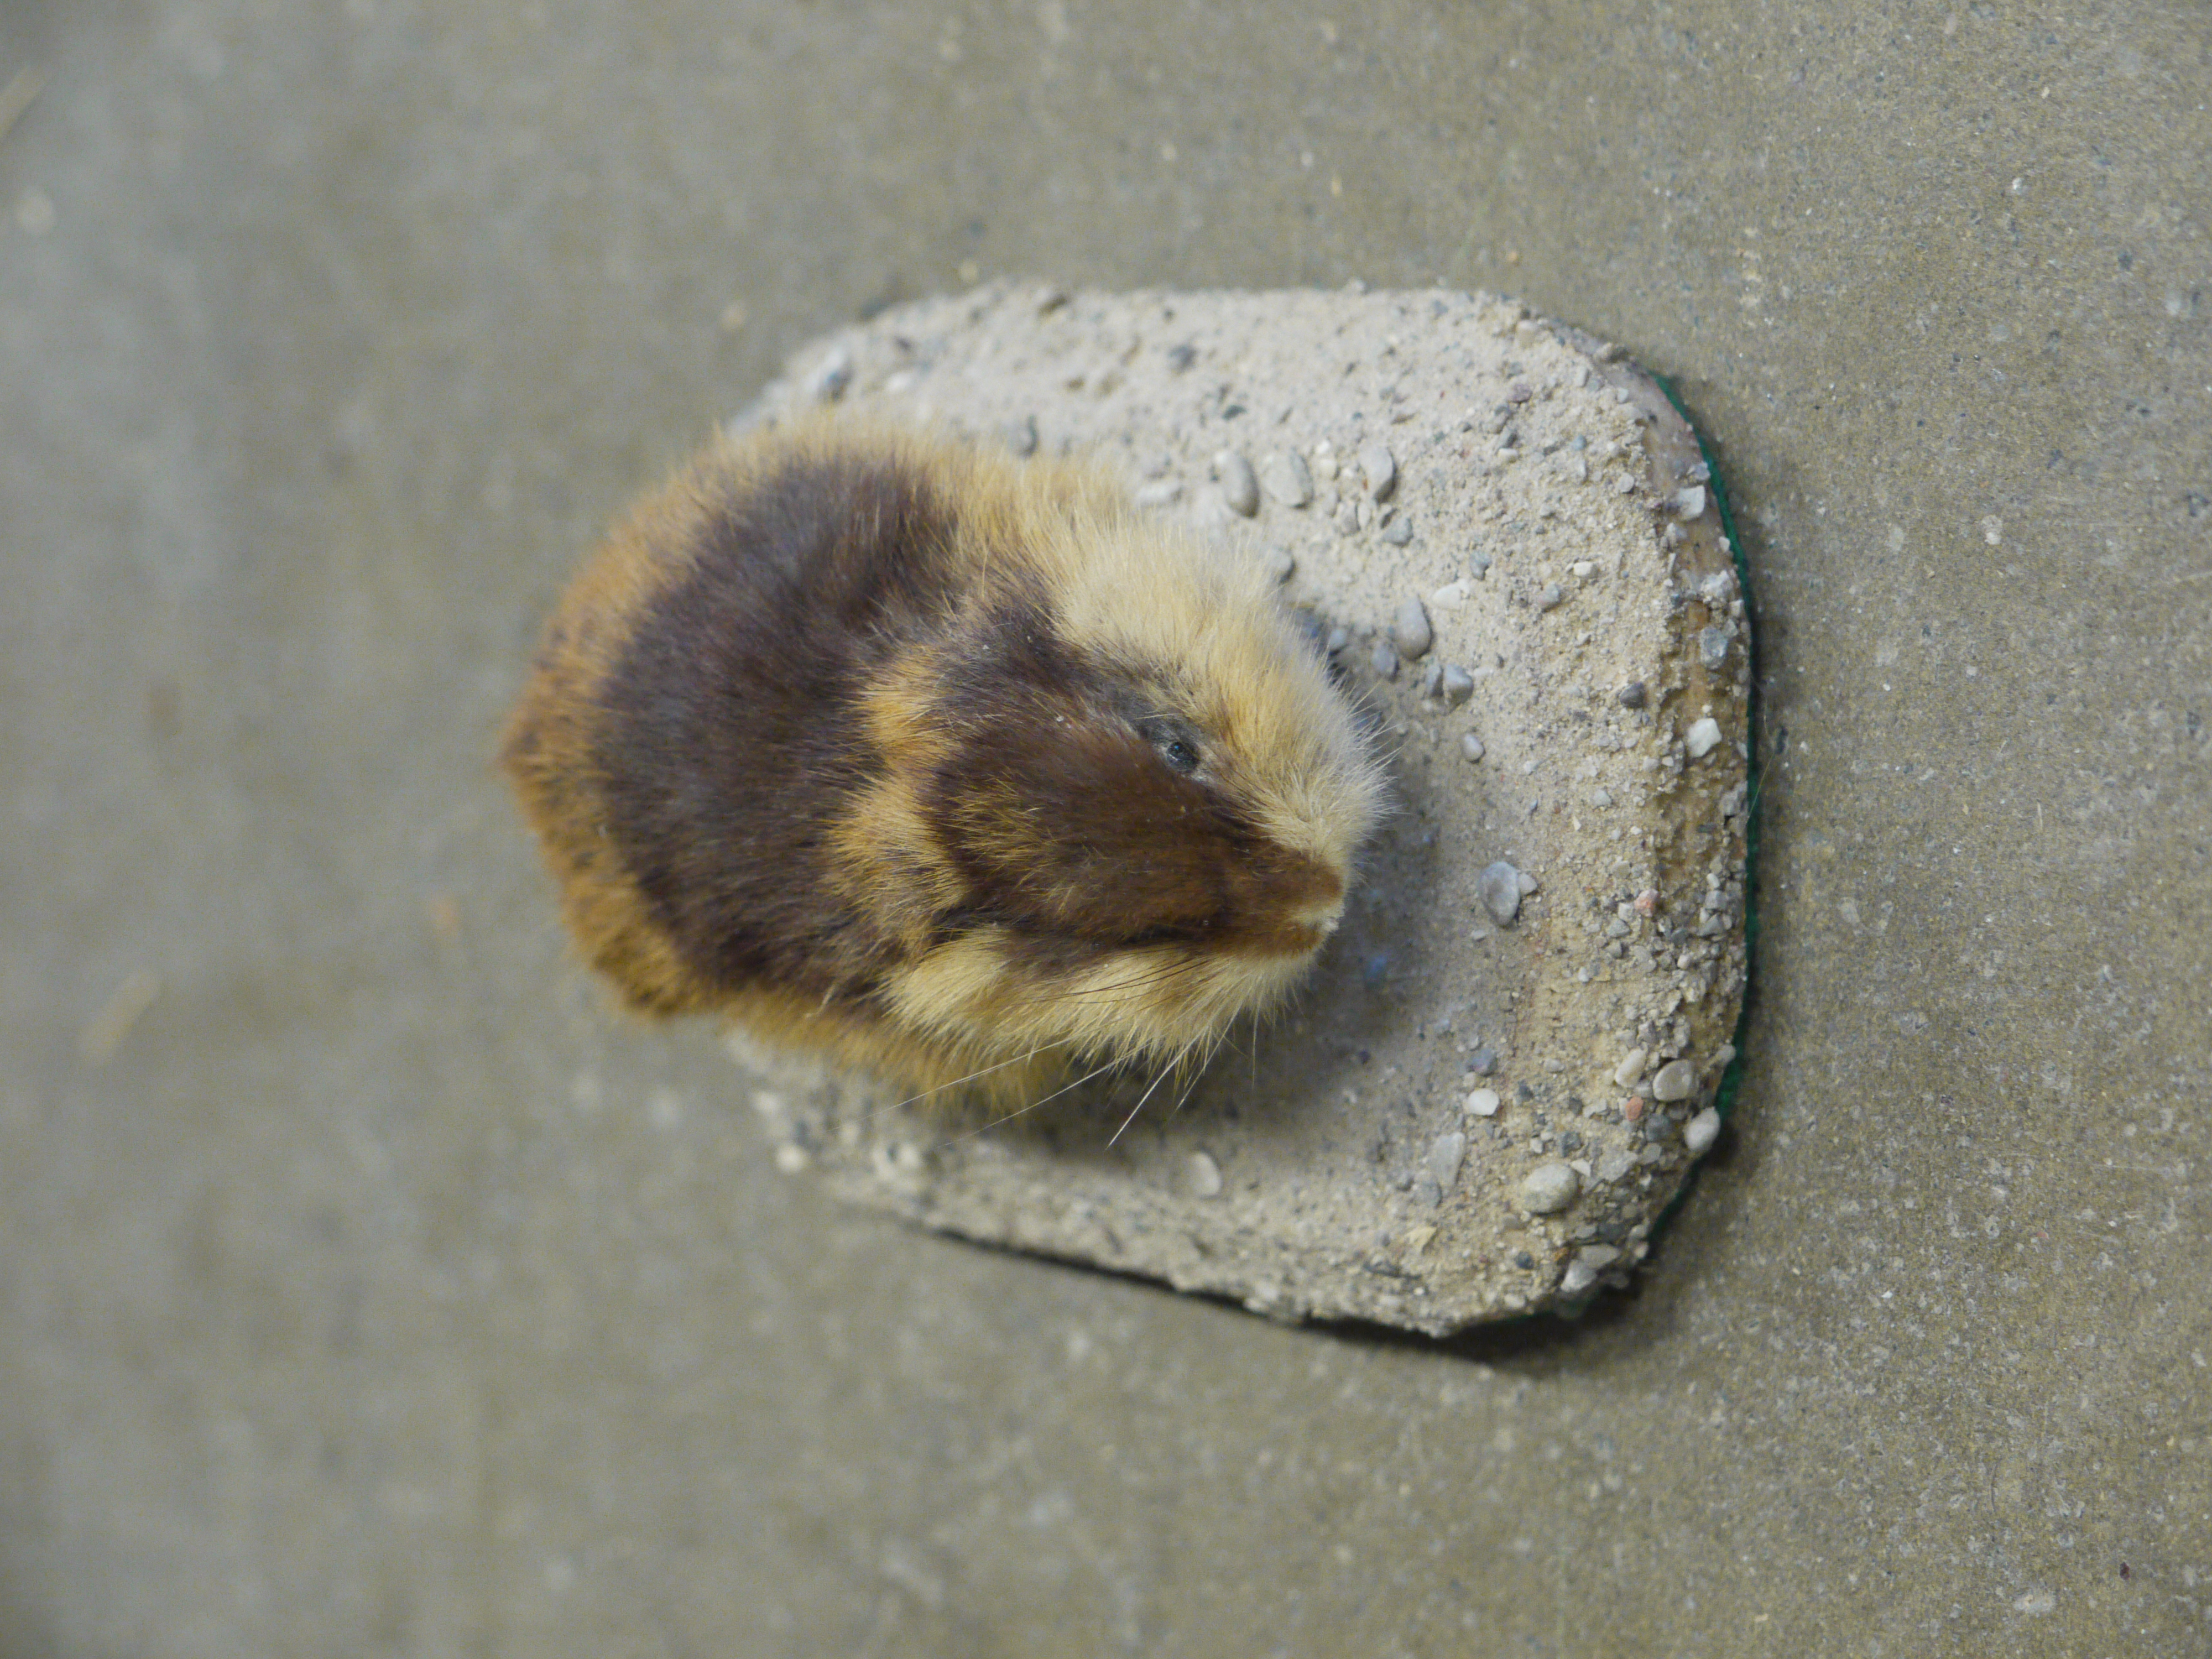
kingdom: Animalia
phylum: Chordata
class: Mammalia
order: Rodentia
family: Cricetidae
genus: Lemmus
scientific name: Lemmus lemmus
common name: Norway lemming
